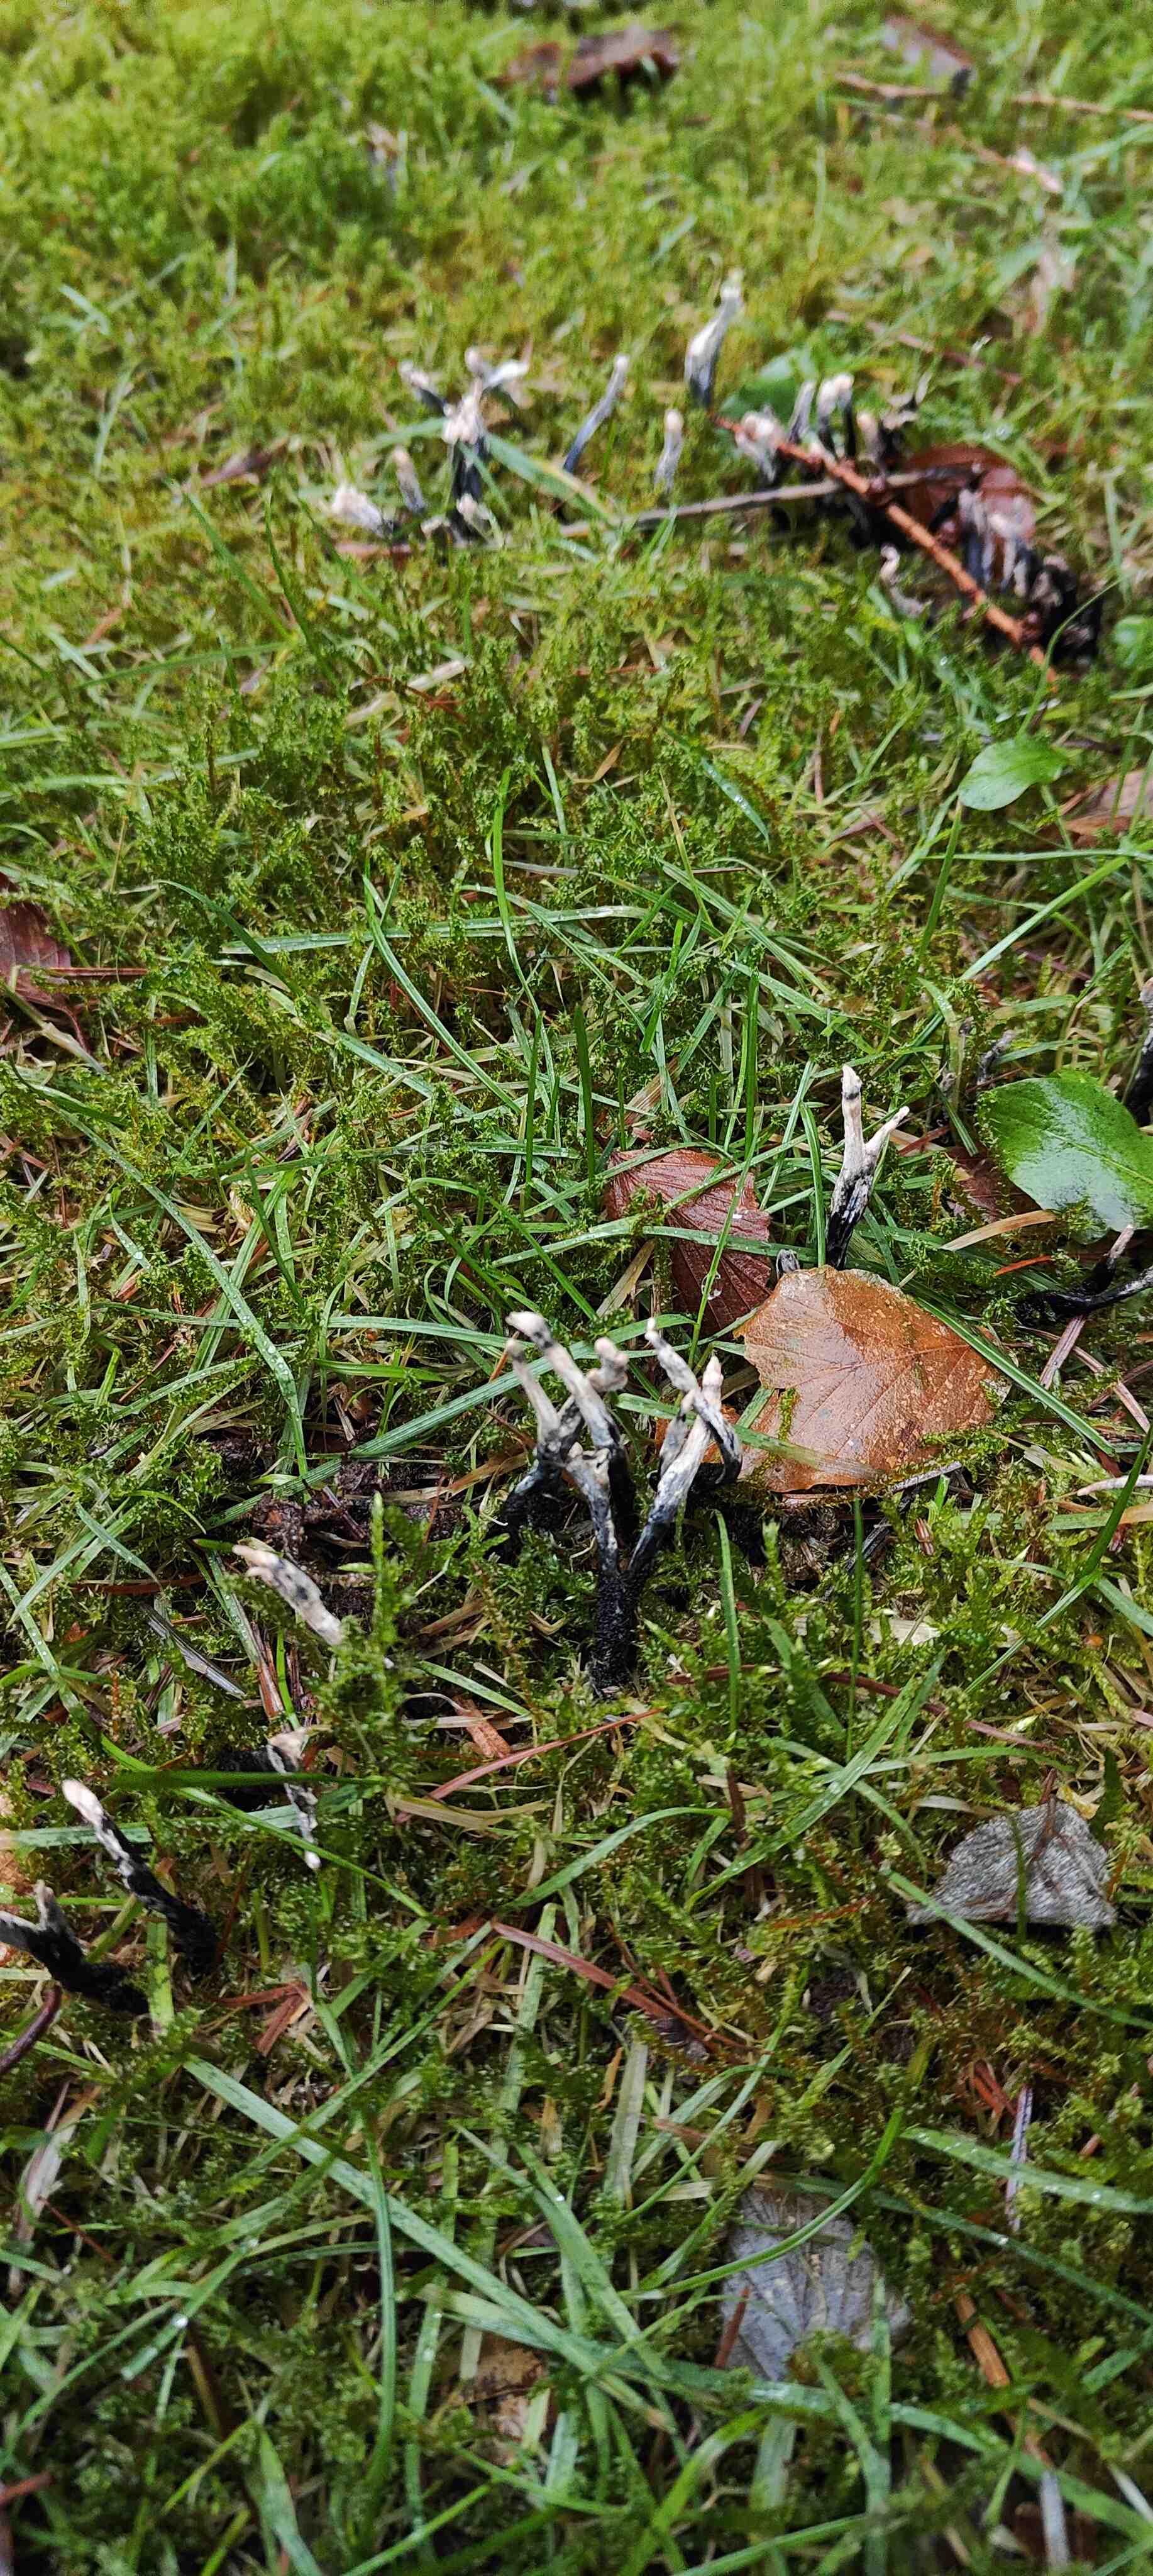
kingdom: Fungi
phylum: Ascomycota
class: Sordariomycetes
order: Xylariales
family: Xylariaceae
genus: Xylaria
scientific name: Xylaria hypoxylon
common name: grenet stødsvamp
